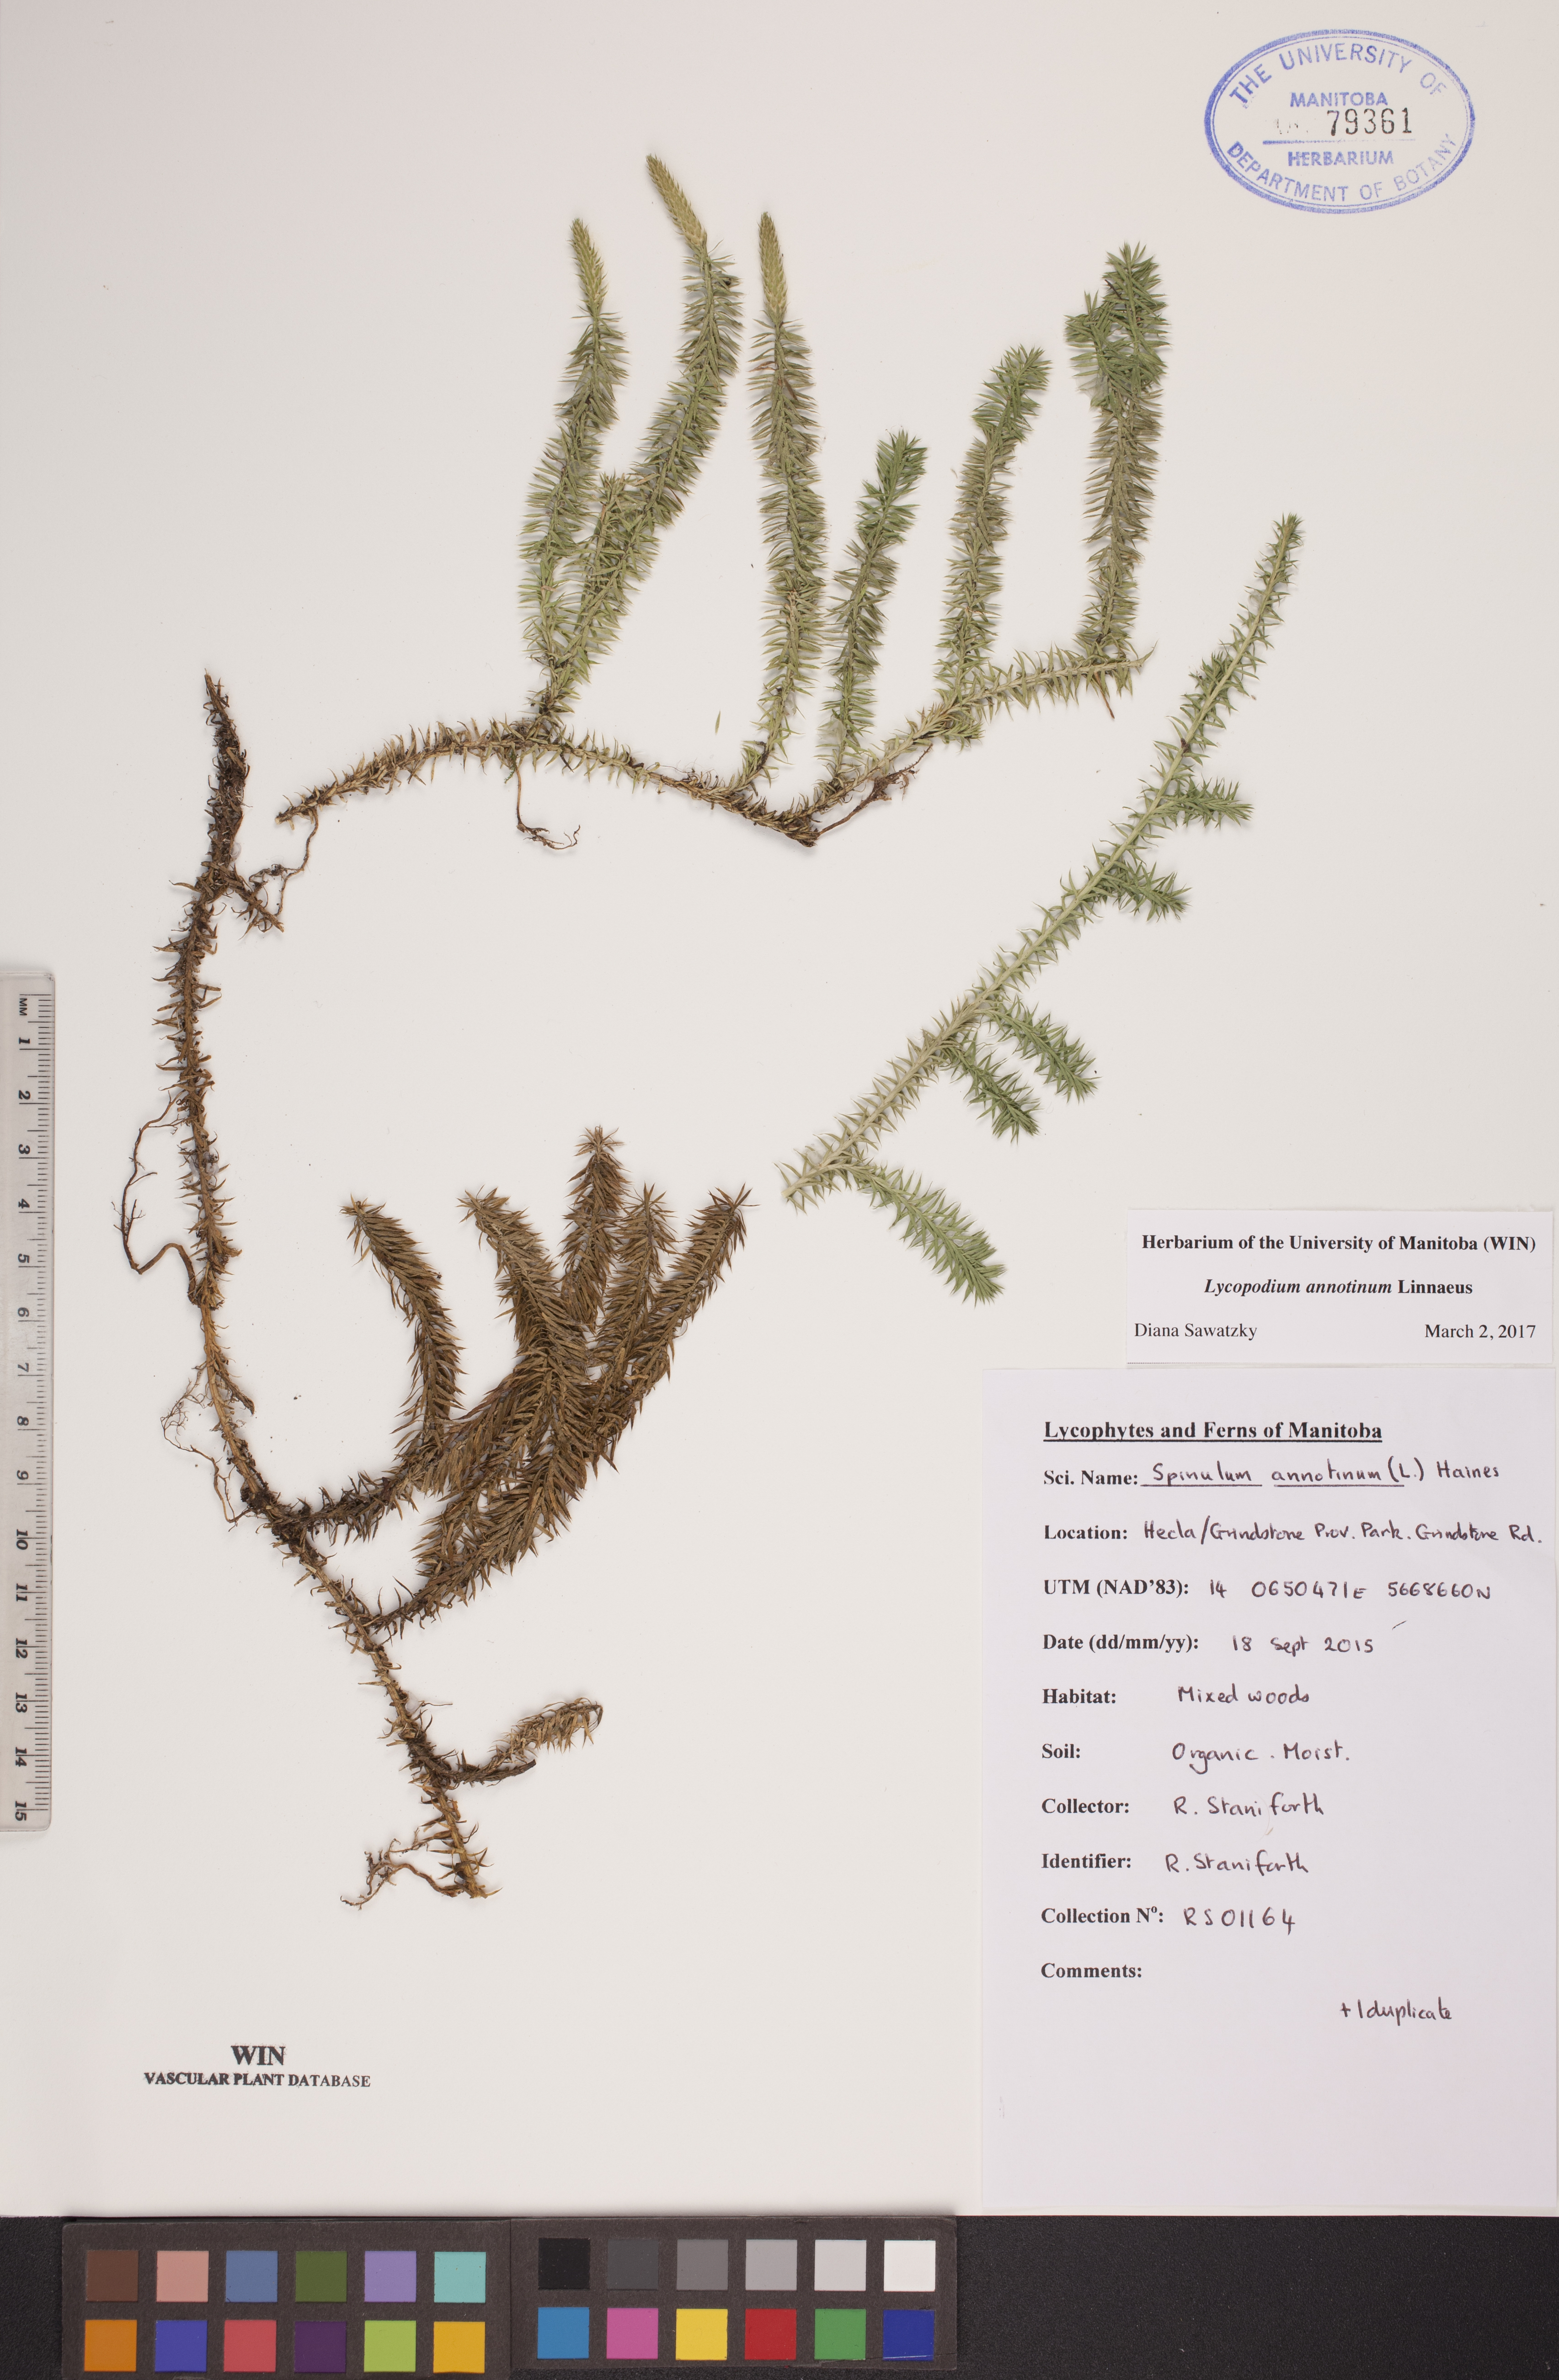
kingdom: Plantae
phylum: Tracheophyta
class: Lycopodiopsida
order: Lycopodiales
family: Lycopodiaceae
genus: Spinulum
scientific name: Spinulum annotinum
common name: Interrupted club-moss
